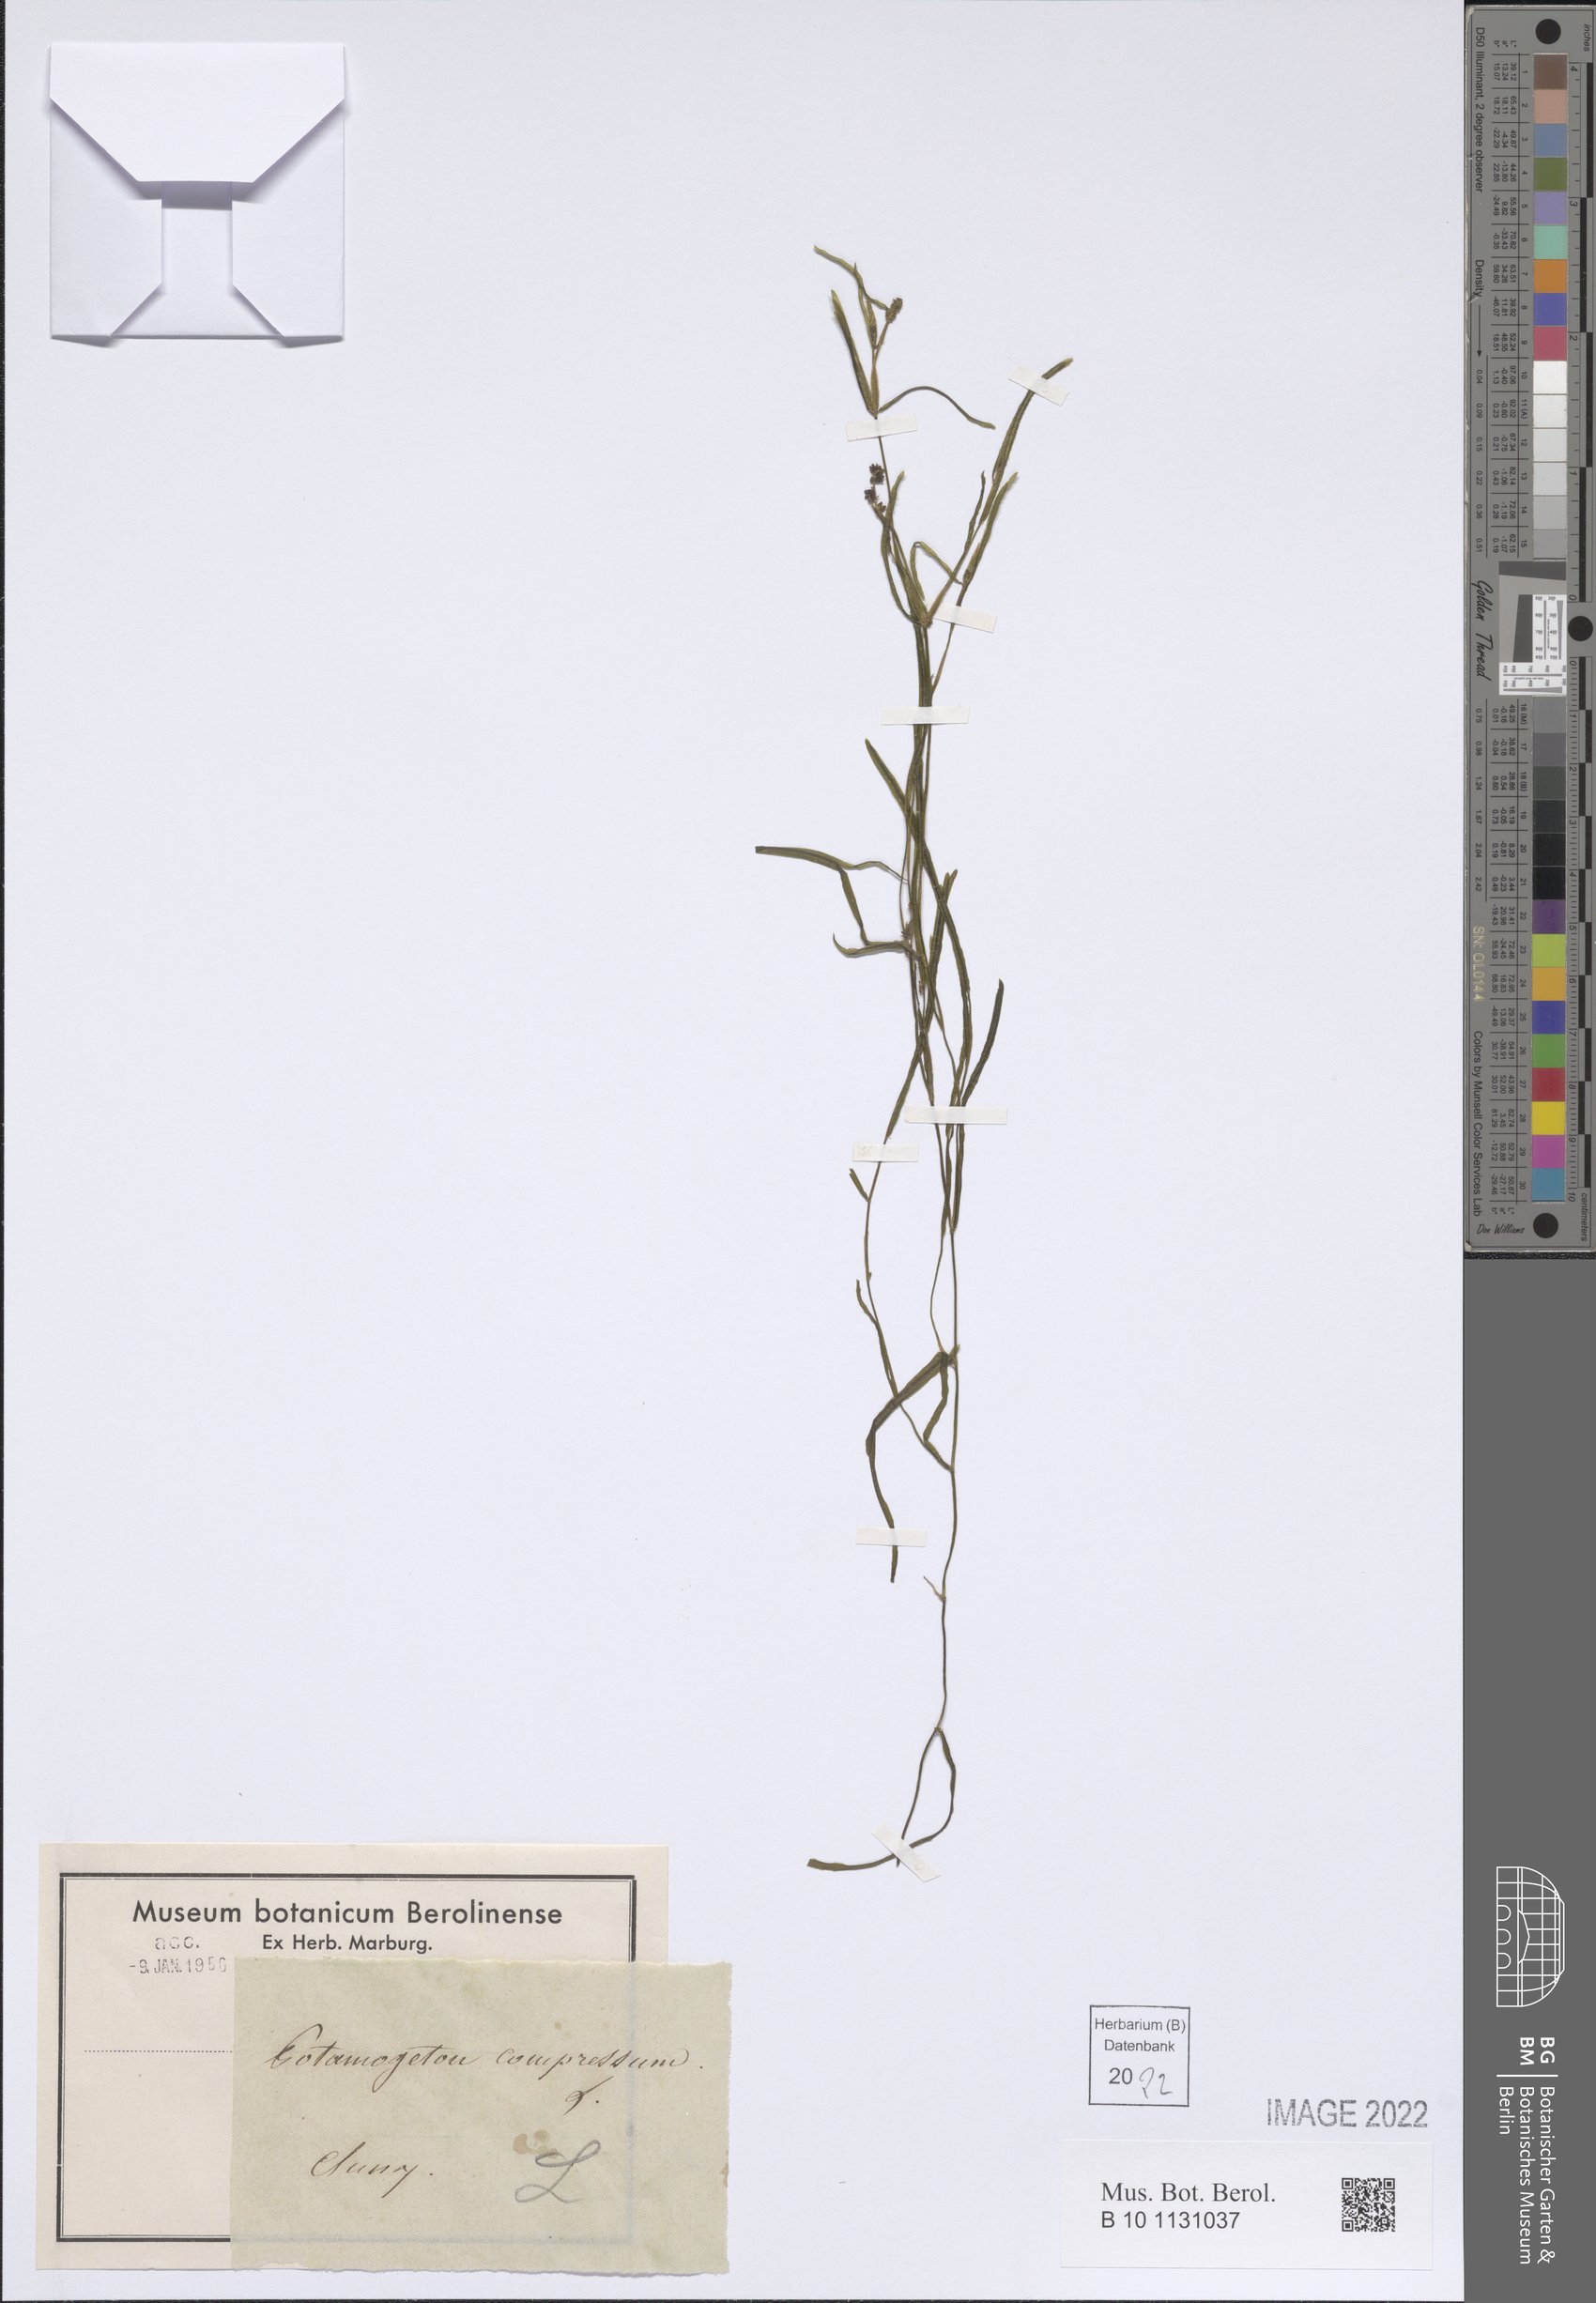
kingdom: Plantae
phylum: Tracheophyta
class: Liliopsida
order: Alismatales
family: Potamogetonaceae
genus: Potamogeton
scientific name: Potamogeton compressus
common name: Grass-wrack pondweed
